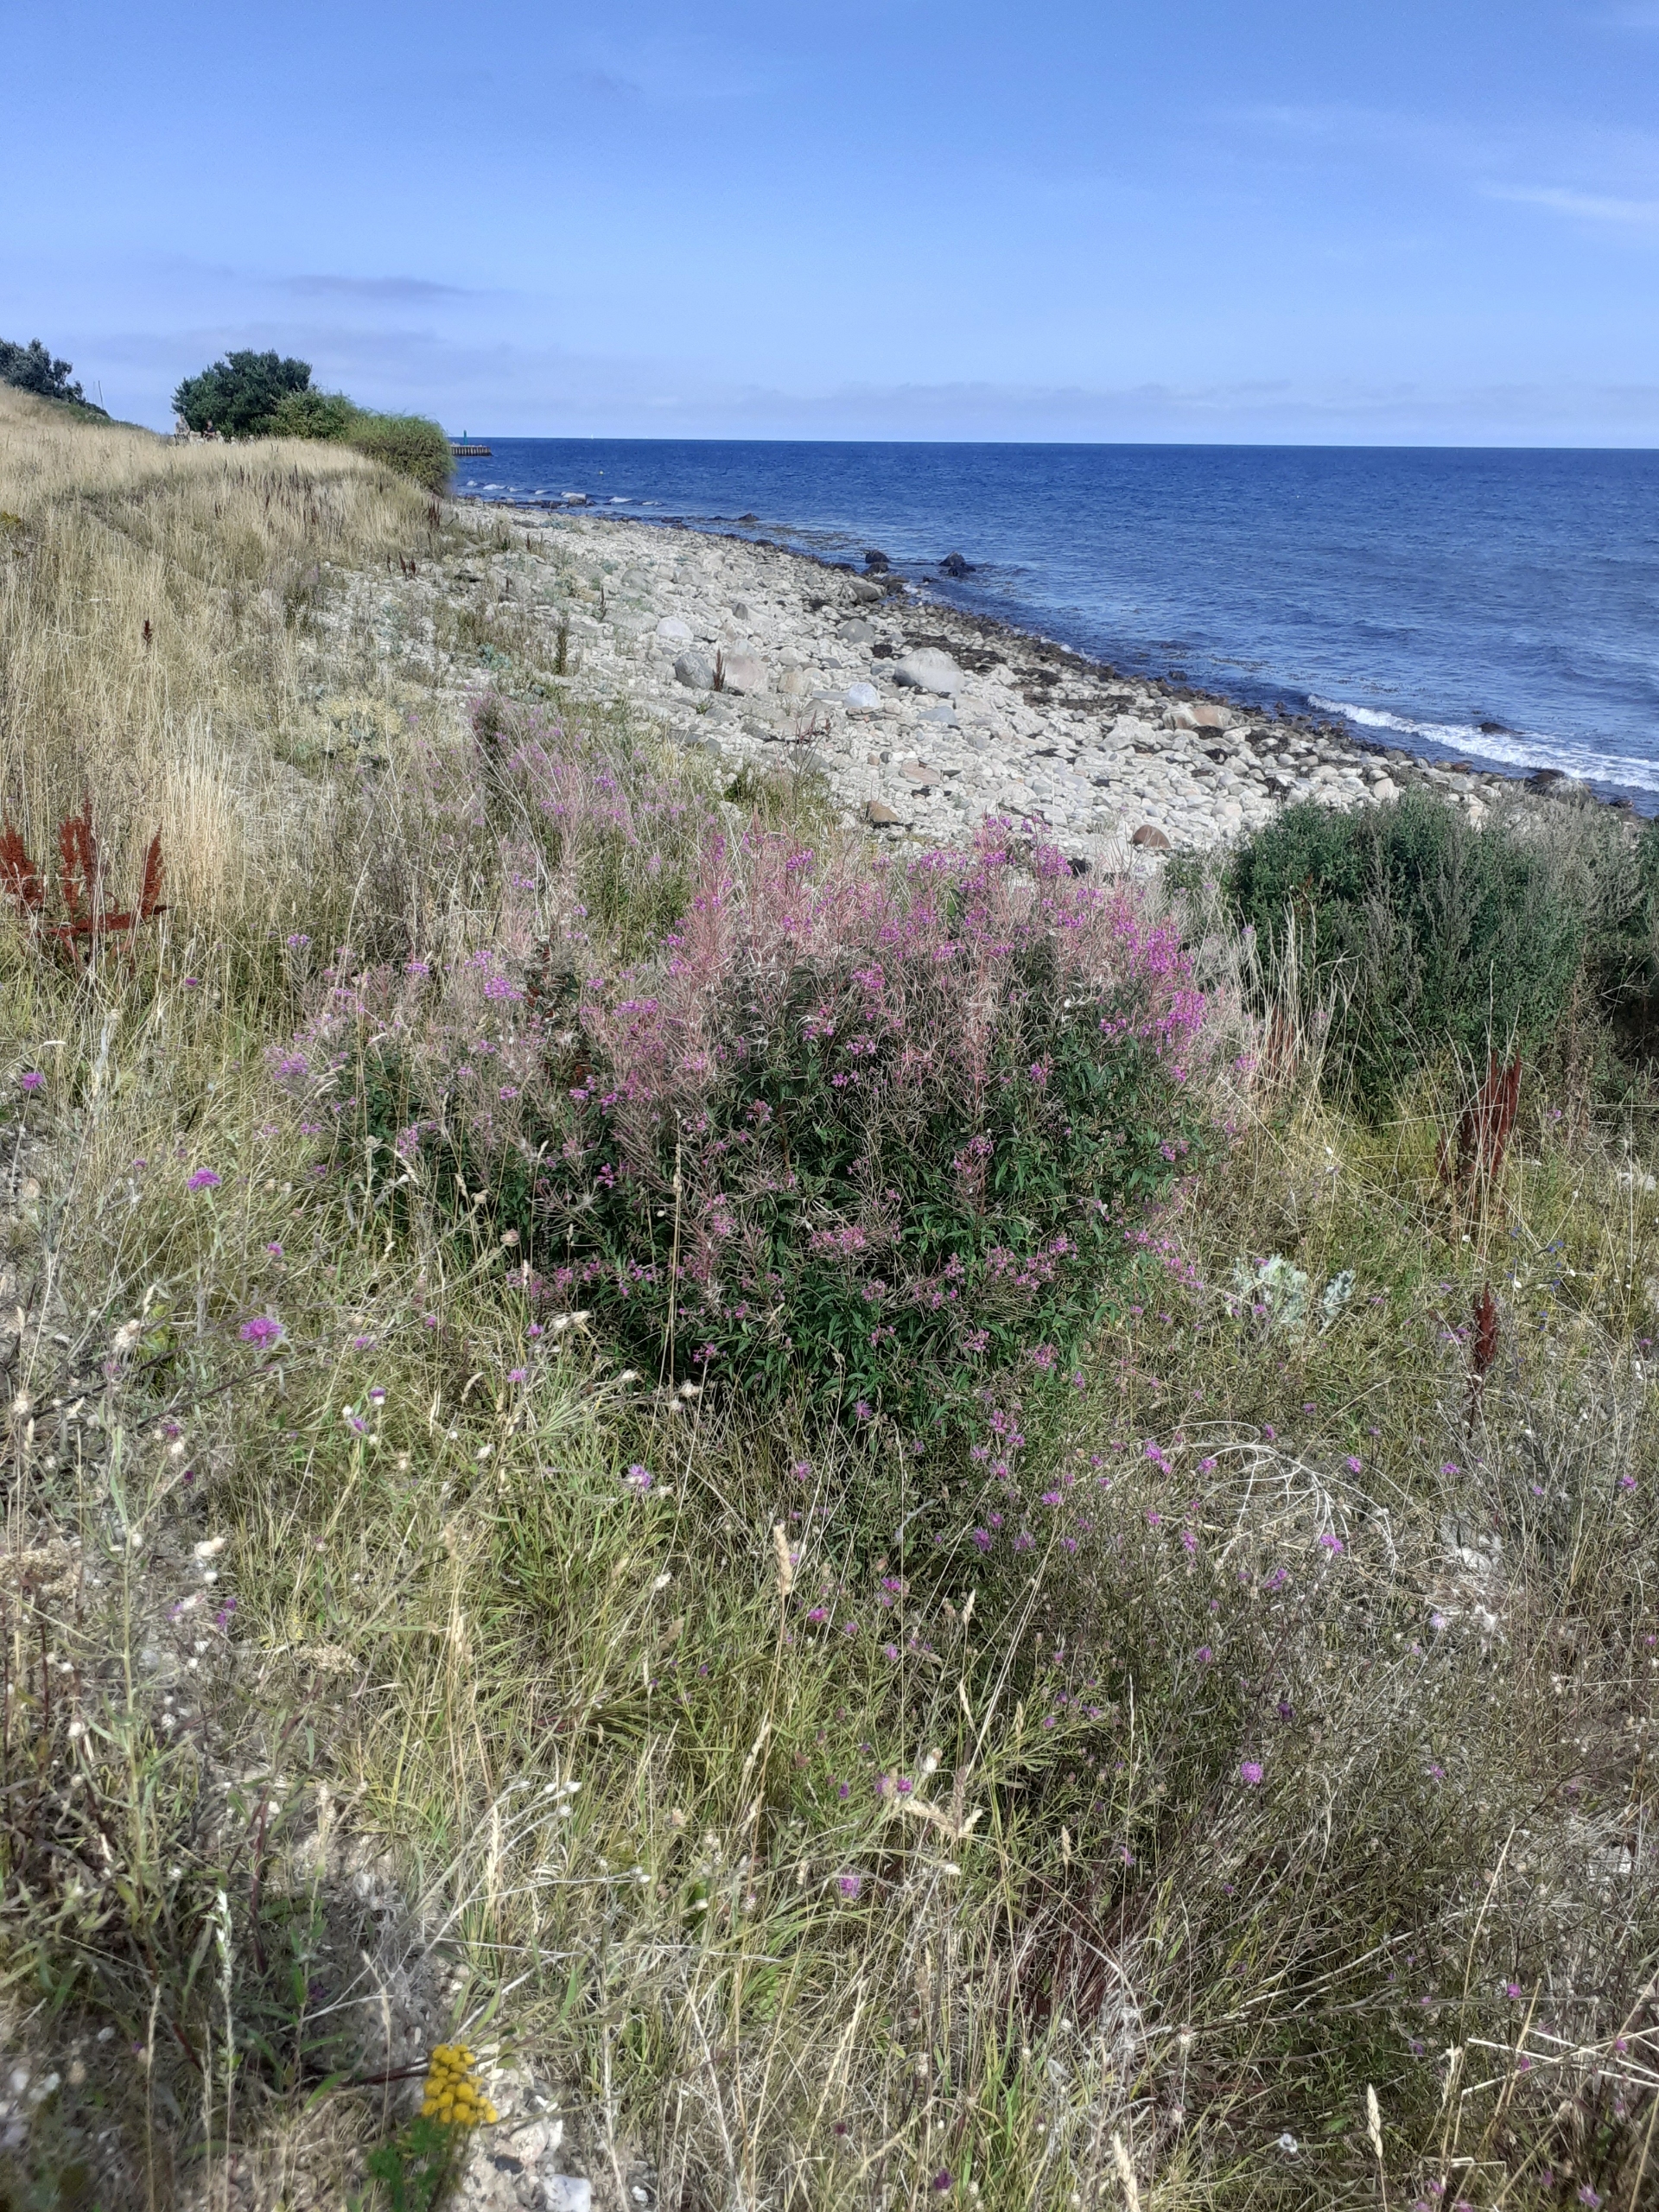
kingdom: Plantae
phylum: Tracheophyta
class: Magnoliopsida
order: Myrtales
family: Onagraceae
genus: Chamaenerion
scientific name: Chamaenerion angustifolium
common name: Gederams
